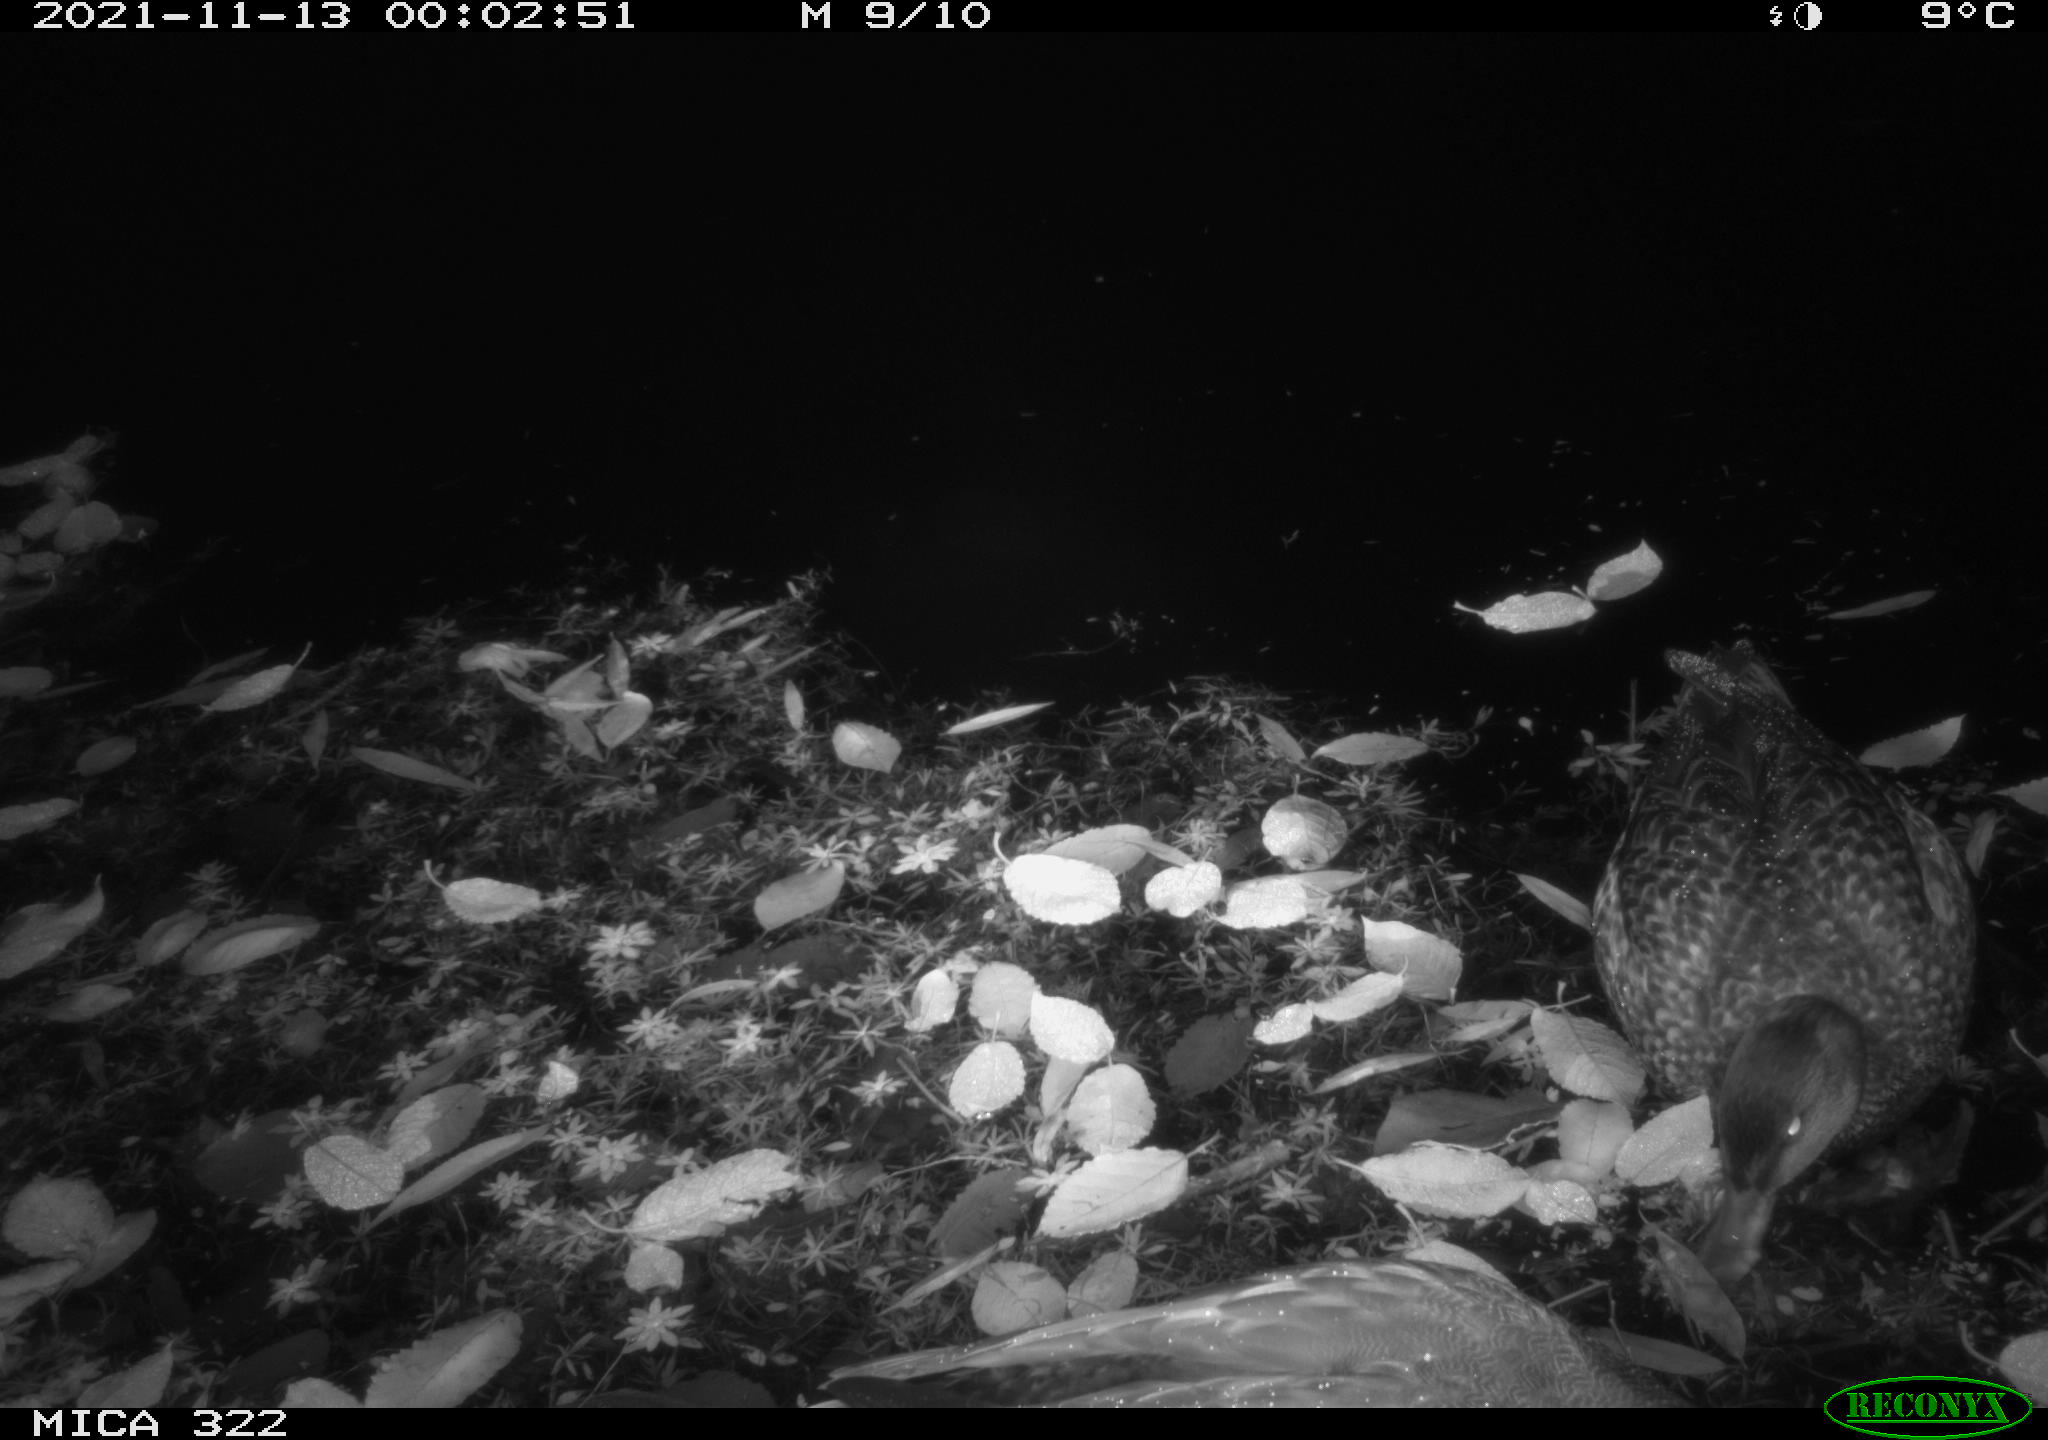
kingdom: Animalia
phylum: Chordata
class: Aves
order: Anseriformes
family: Anatidae
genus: Anas
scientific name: Anas platyrhynchos
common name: Mallard
